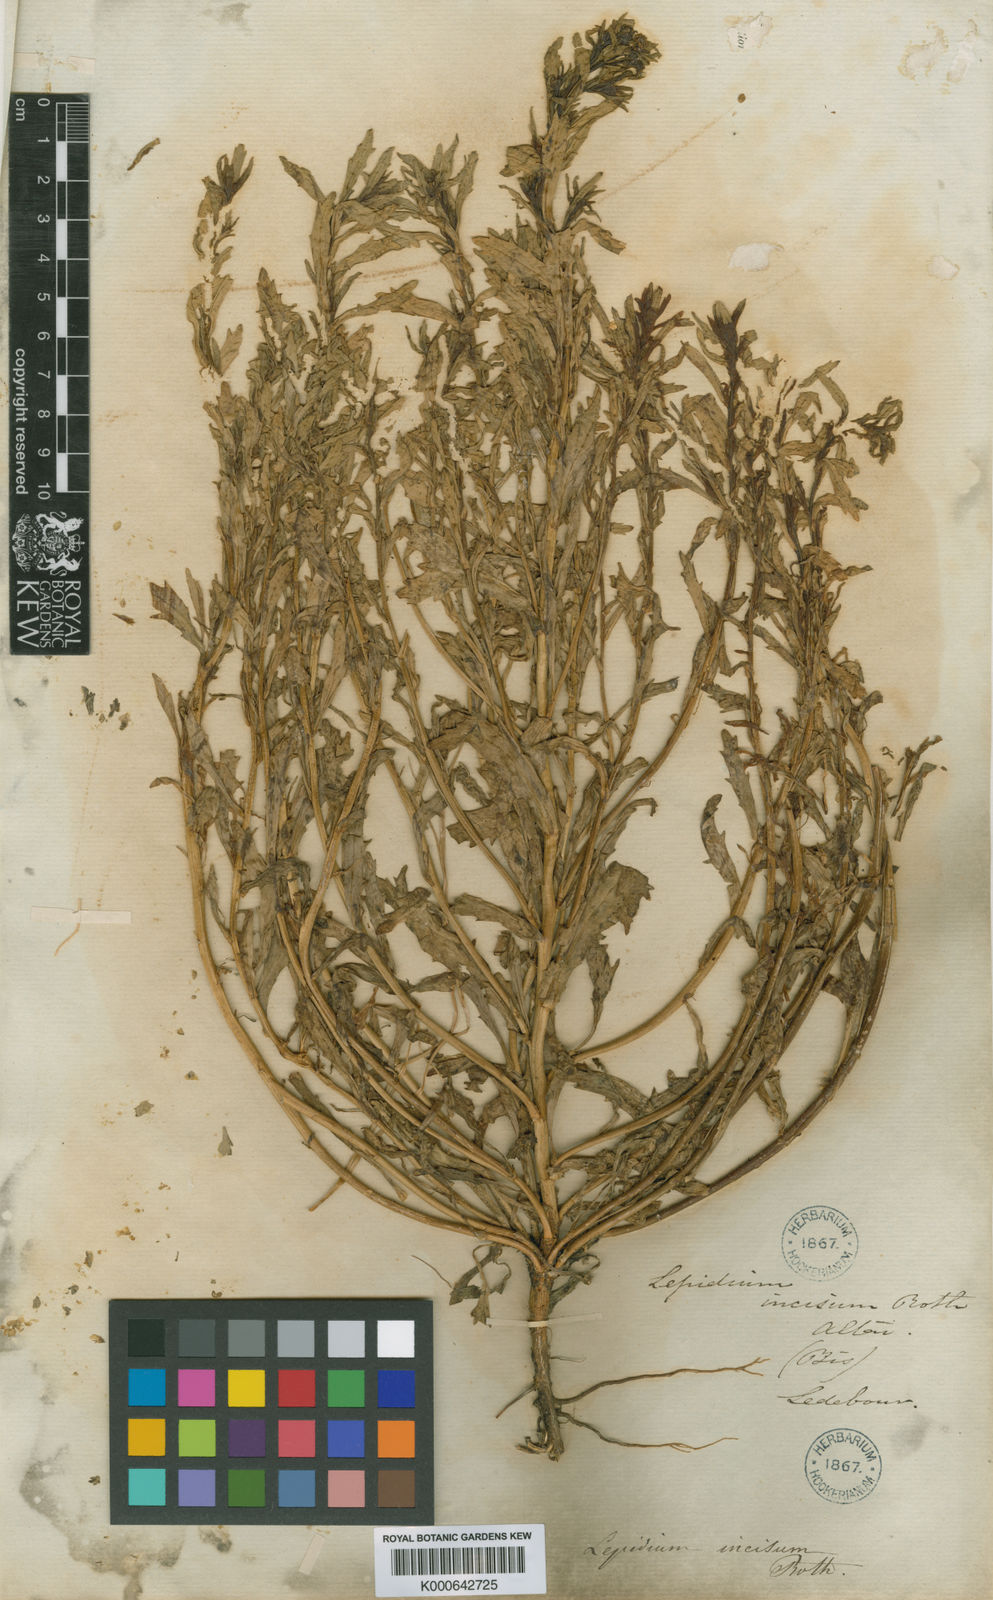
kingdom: Plantae
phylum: Tracheophyta
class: Magnoliopsida
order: Brassicales
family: Brassicaceae
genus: Lepidium
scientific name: Lepidium apetalum
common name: Pepperweed
